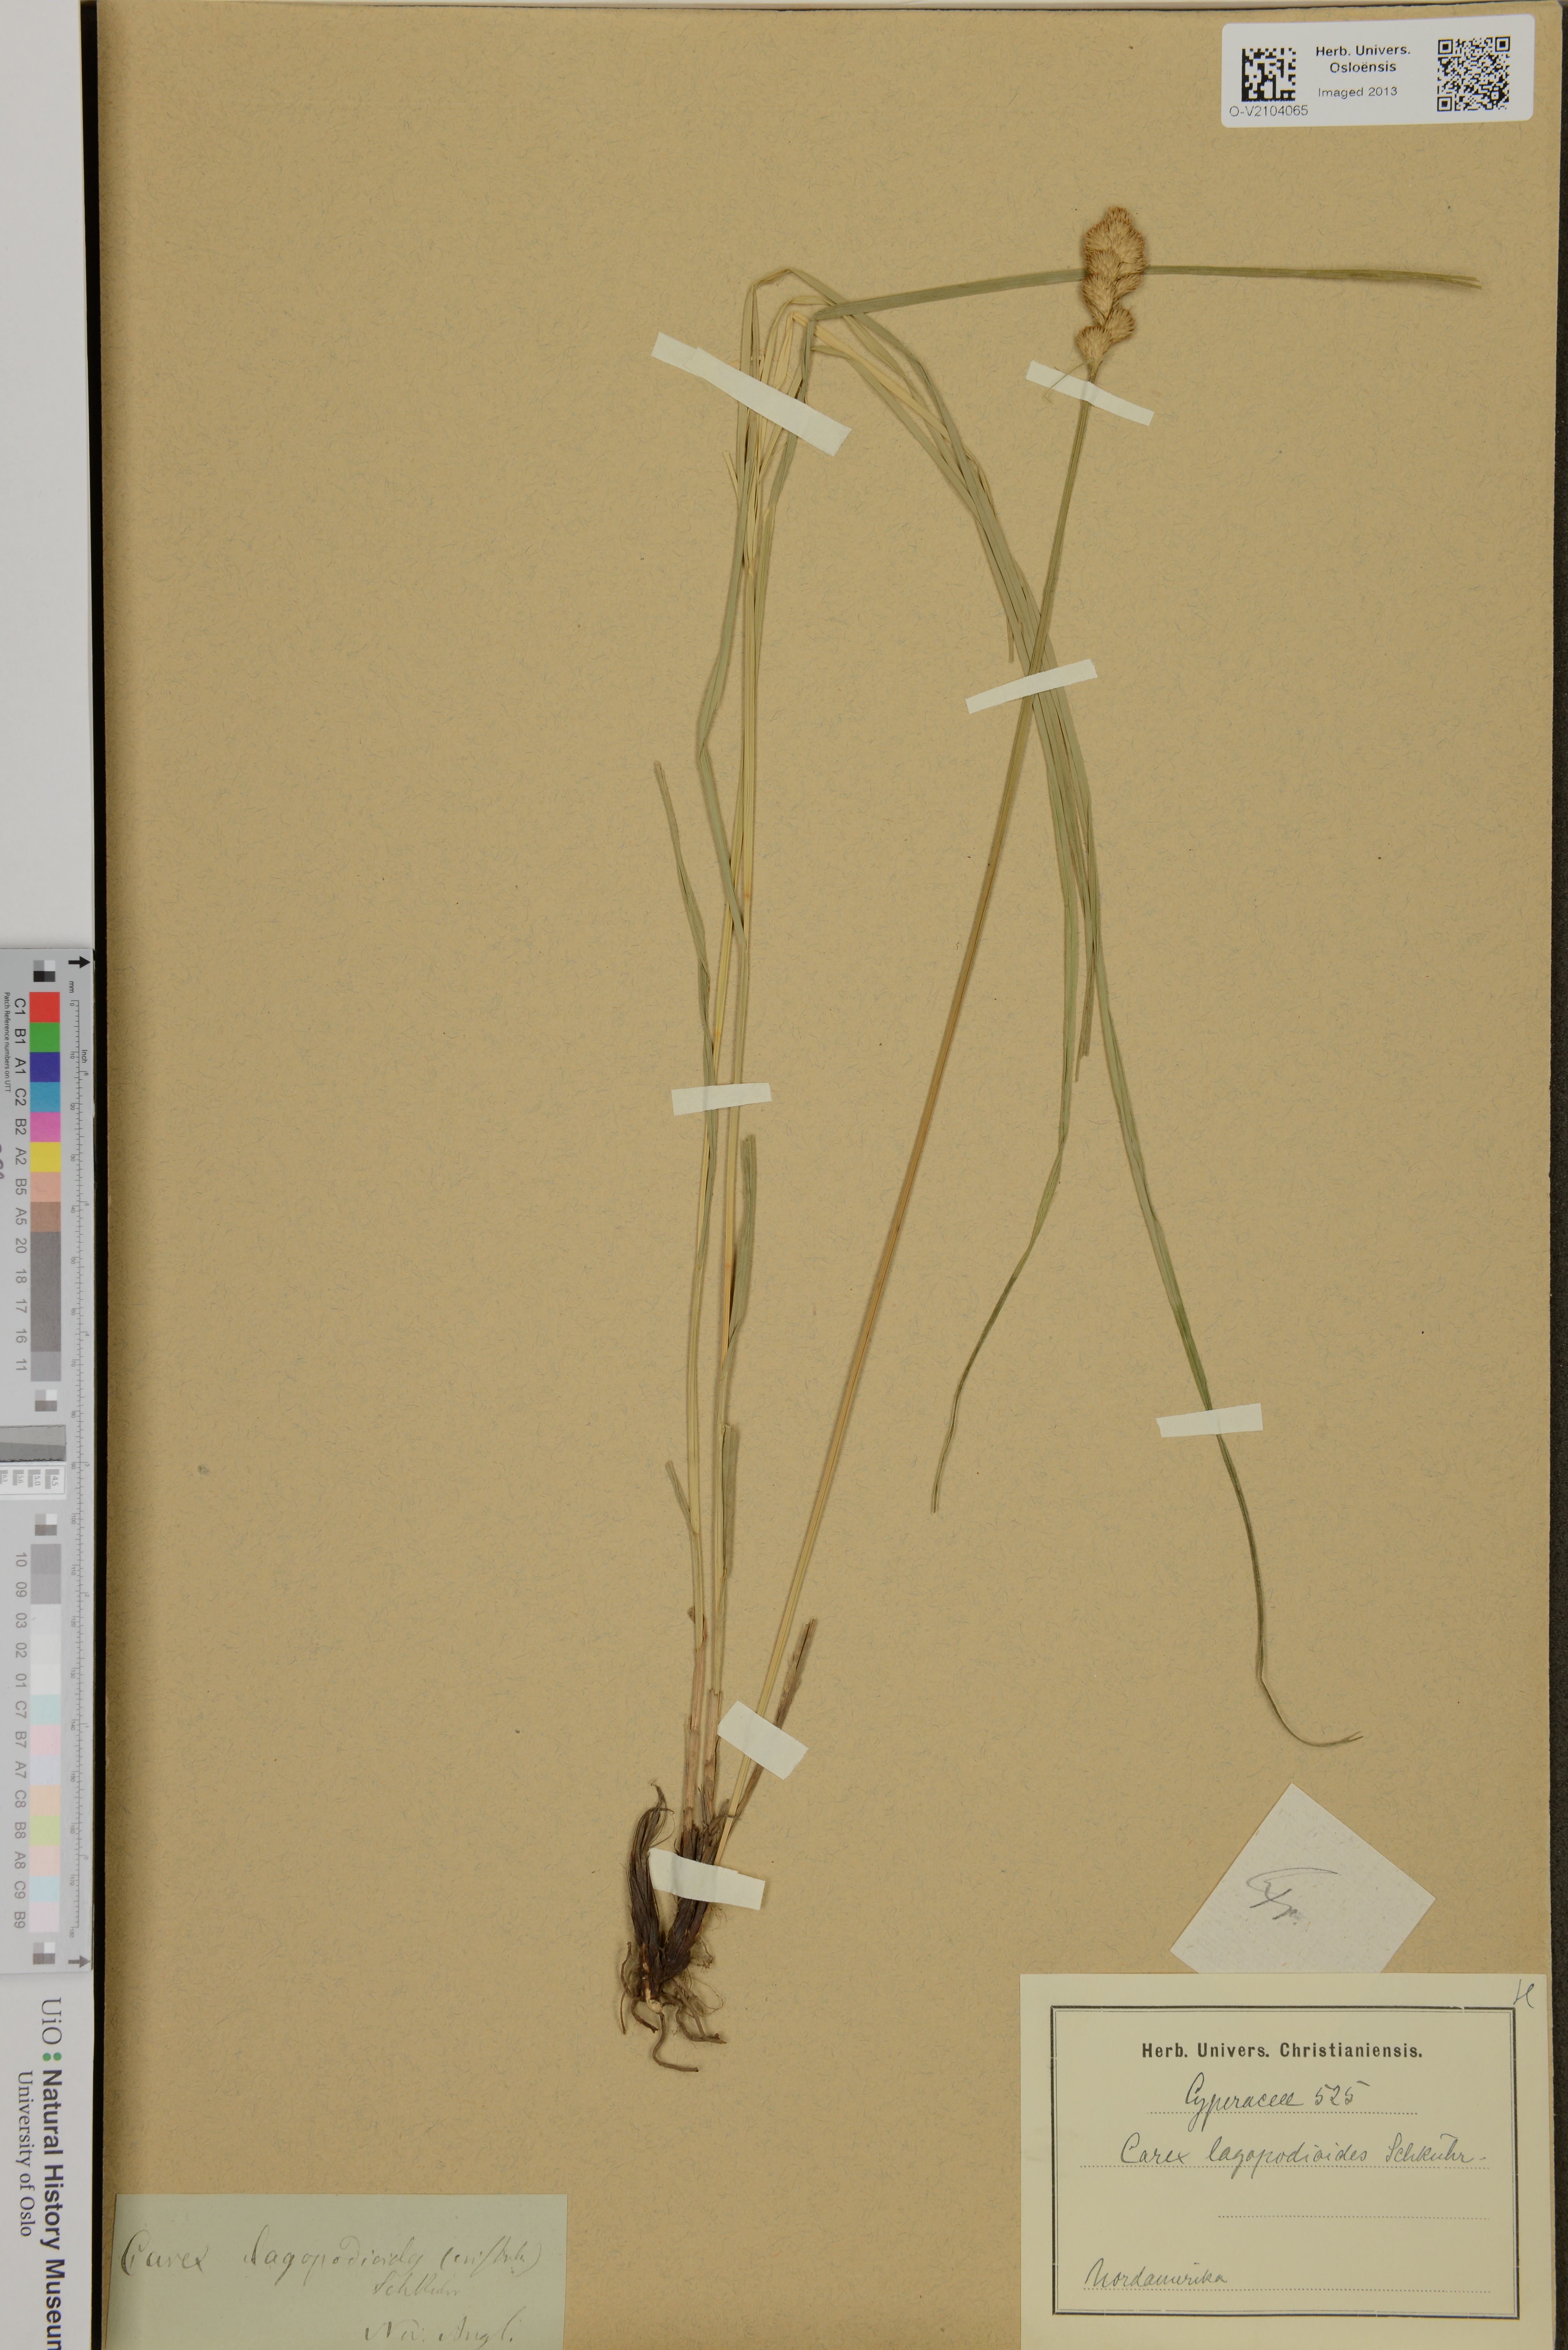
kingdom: Plantae
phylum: Tracheophyta
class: Liliopsida
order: Poales
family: Cyperaceae
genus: Carex
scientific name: Carex lagopodioides
